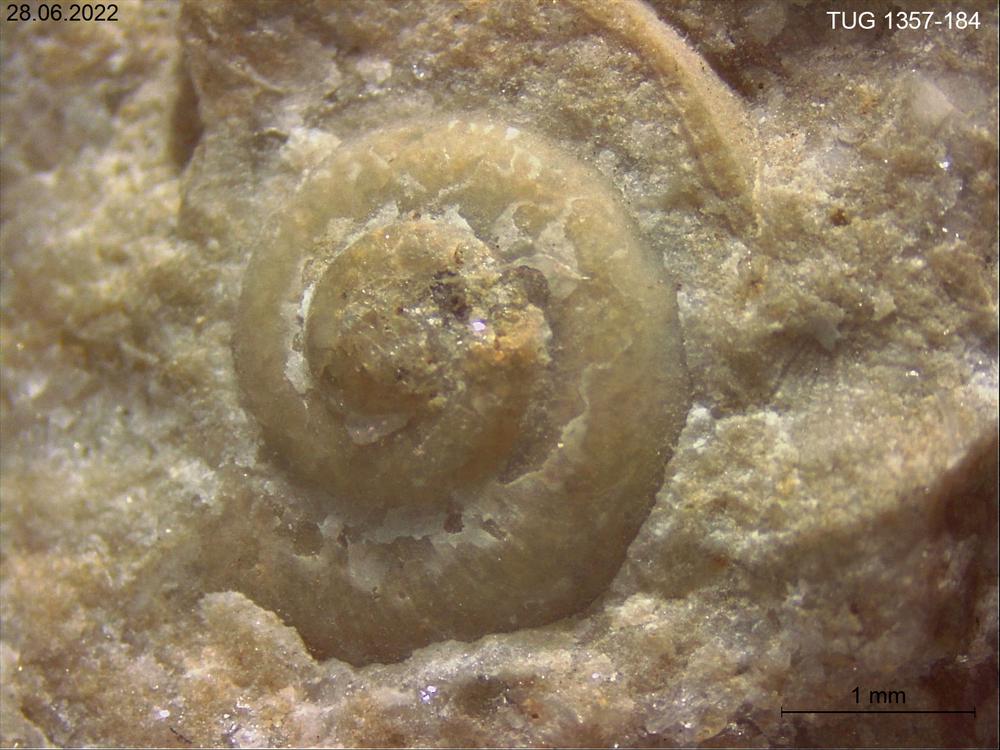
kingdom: Animalia
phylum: Mollusca
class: Gastropoda
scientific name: Gastropoda
